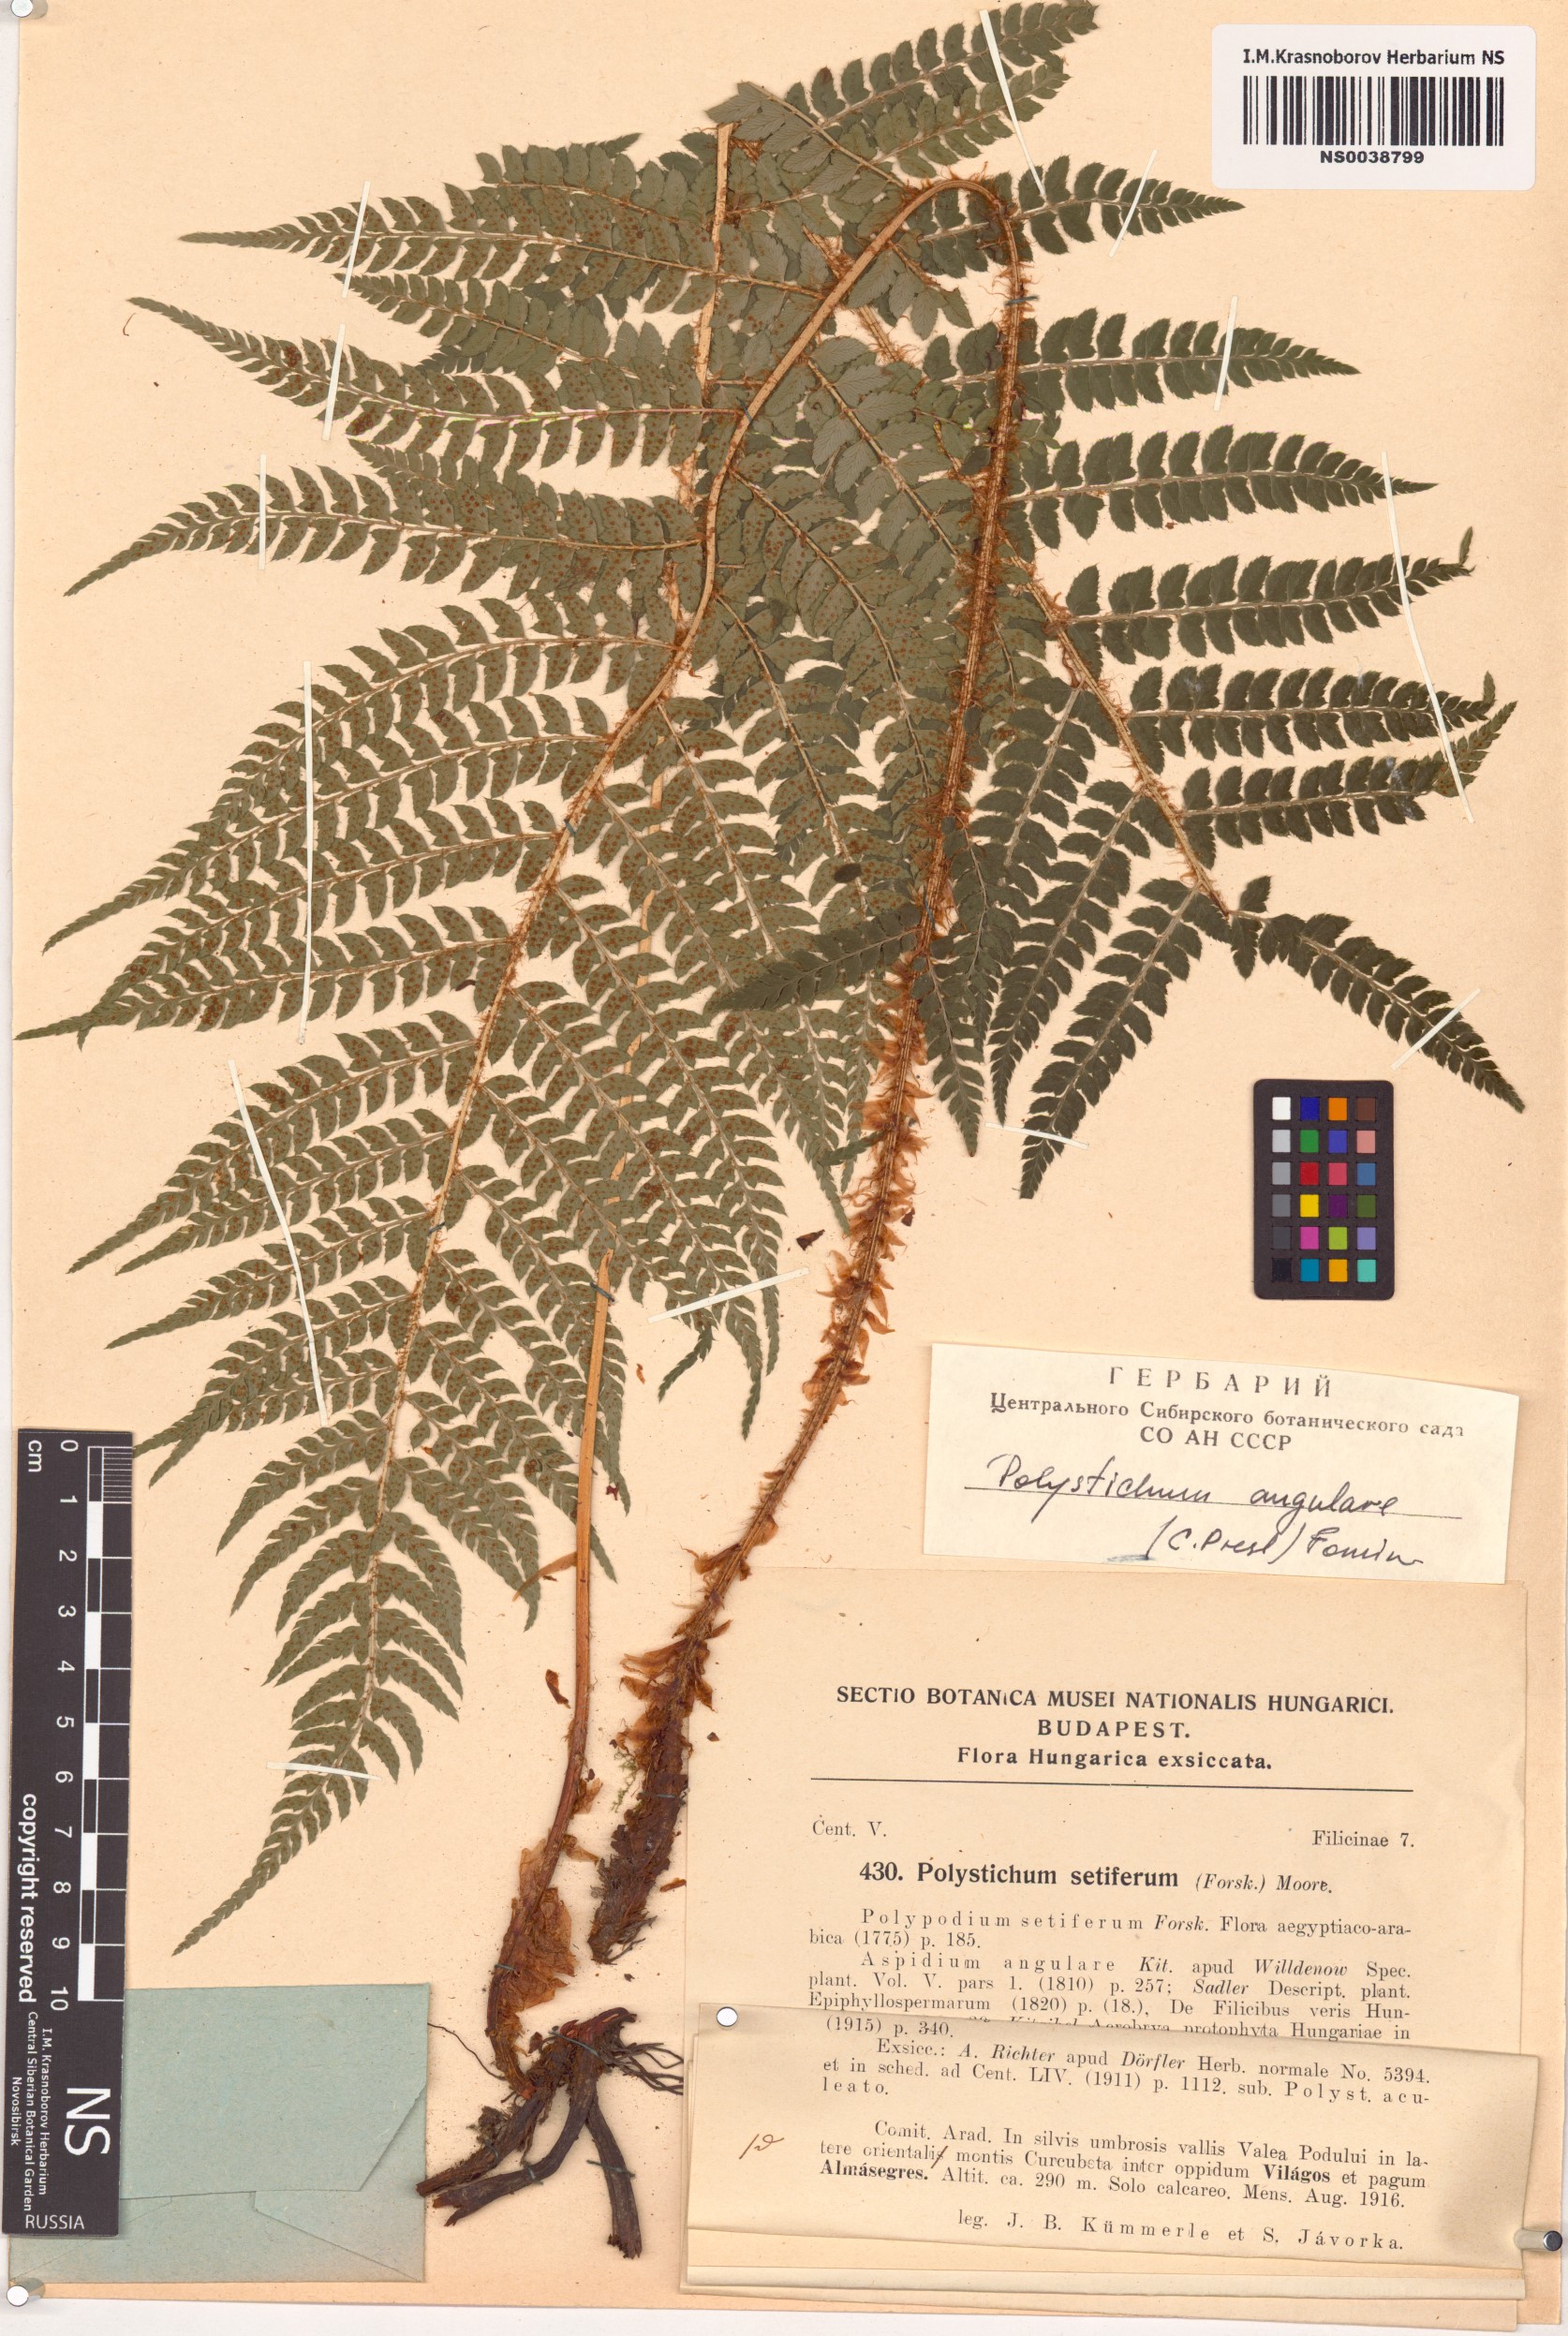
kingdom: Plantae
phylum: Tracheophyta
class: Polypodiopsida
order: Polypodiales
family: Dryopteridaceae
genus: Polystichum
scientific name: Polystichum setiferum
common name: Soft shield-fern
